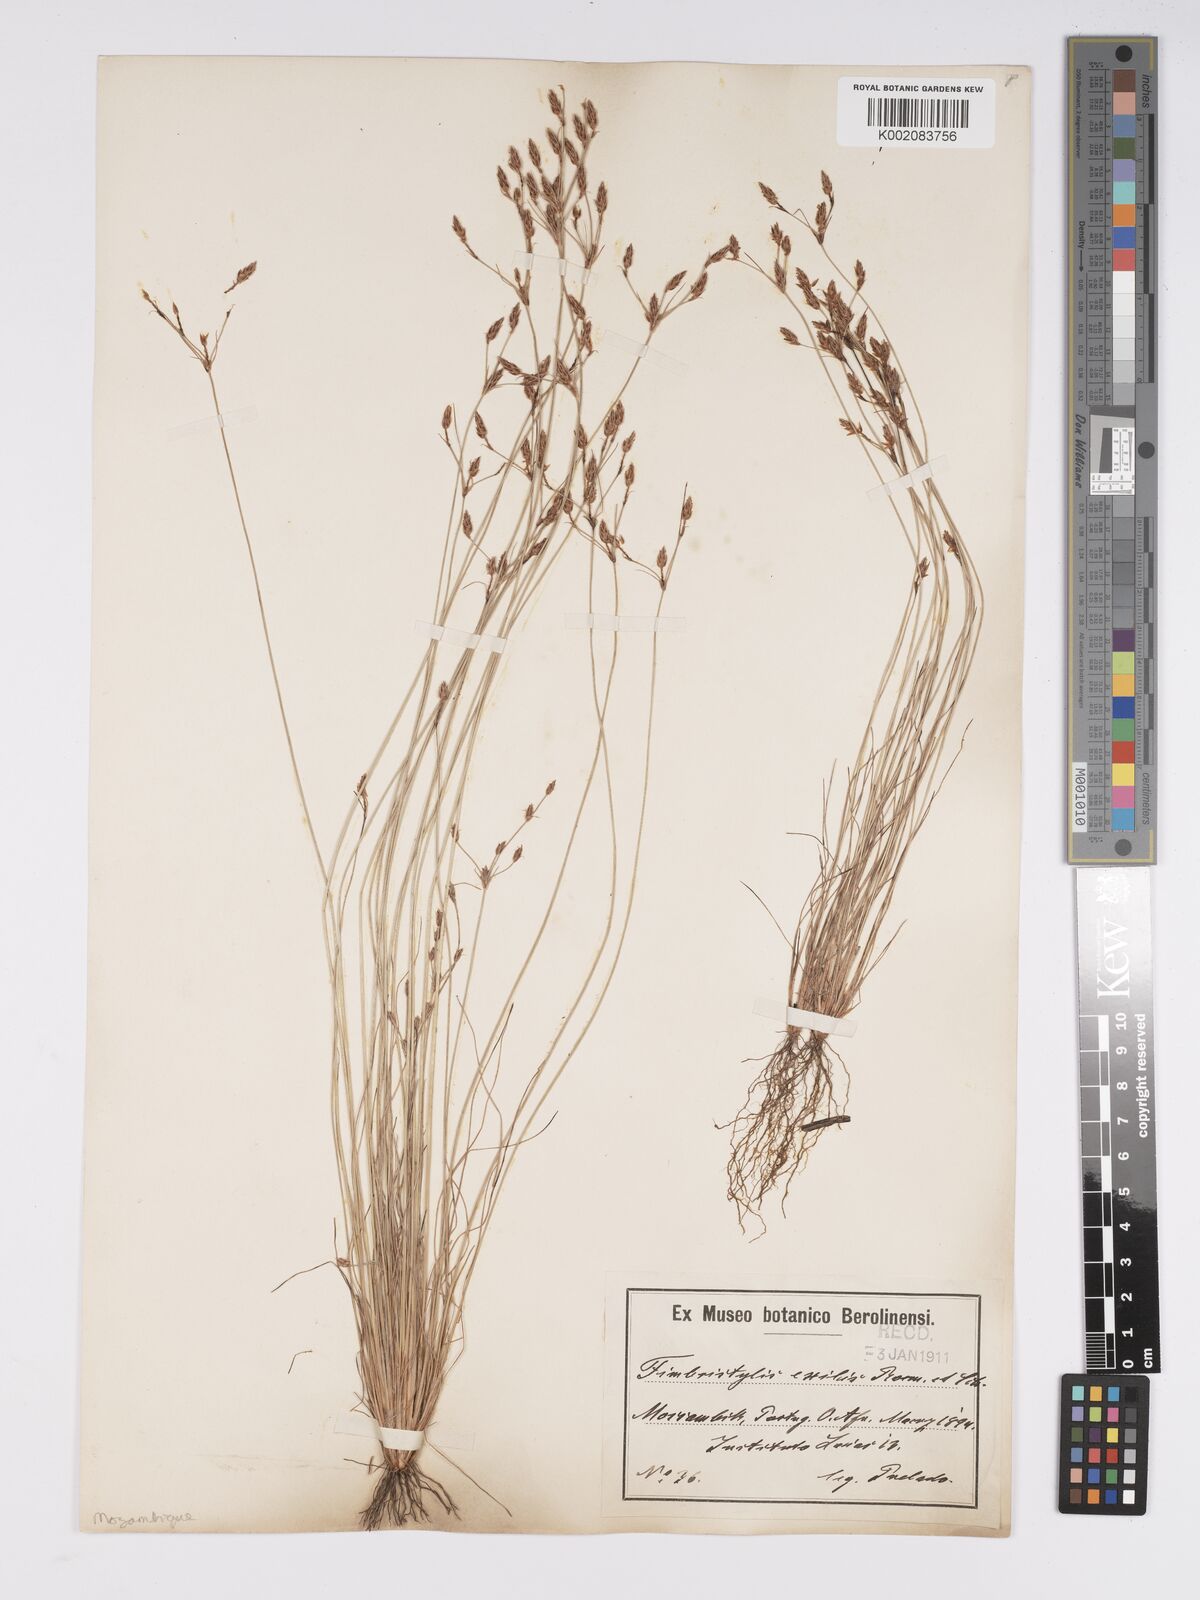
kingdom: Plantae
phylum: Tracheophyta
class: Liliopsida
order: Poales
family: Cyperaceae
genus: Bulbostylis
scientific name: Bulbostylis hispidula
